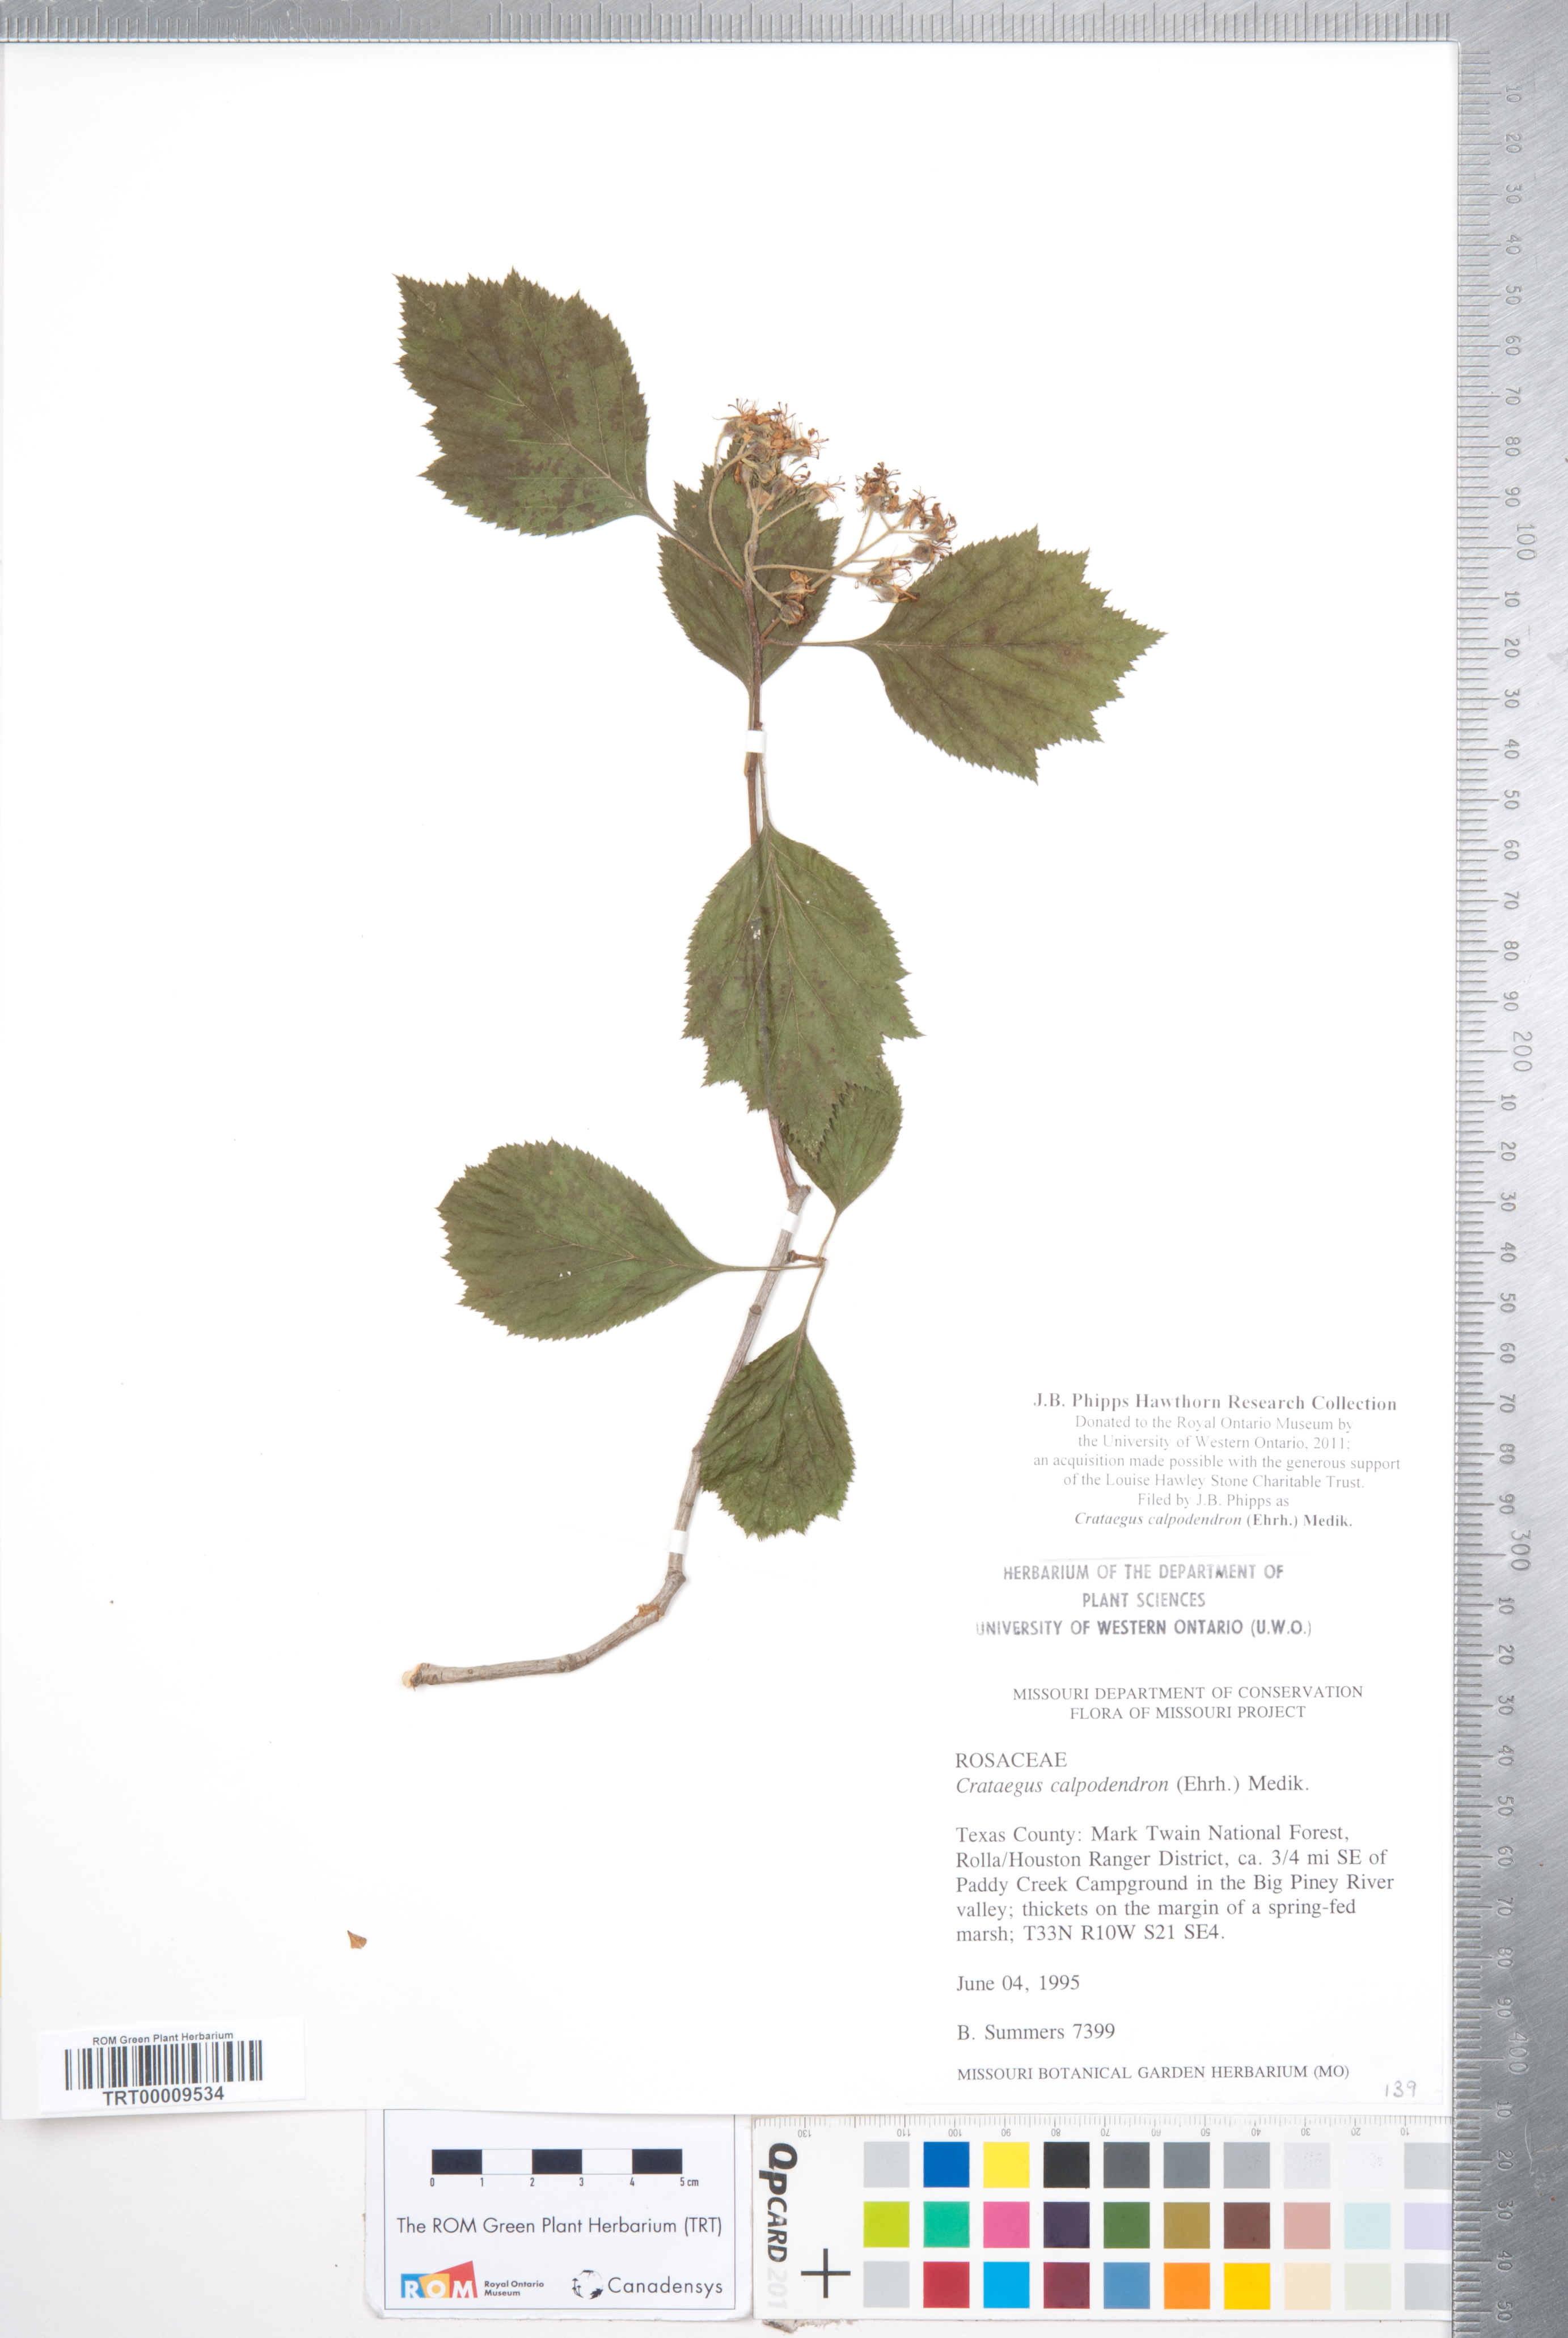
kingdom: Plantae
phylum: Tracheophyta
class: Magnoliopsida
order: Rosales
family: Rosaceae
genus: Crataegus
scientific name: Crataegus calpodendron
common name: Pear hawthorn
